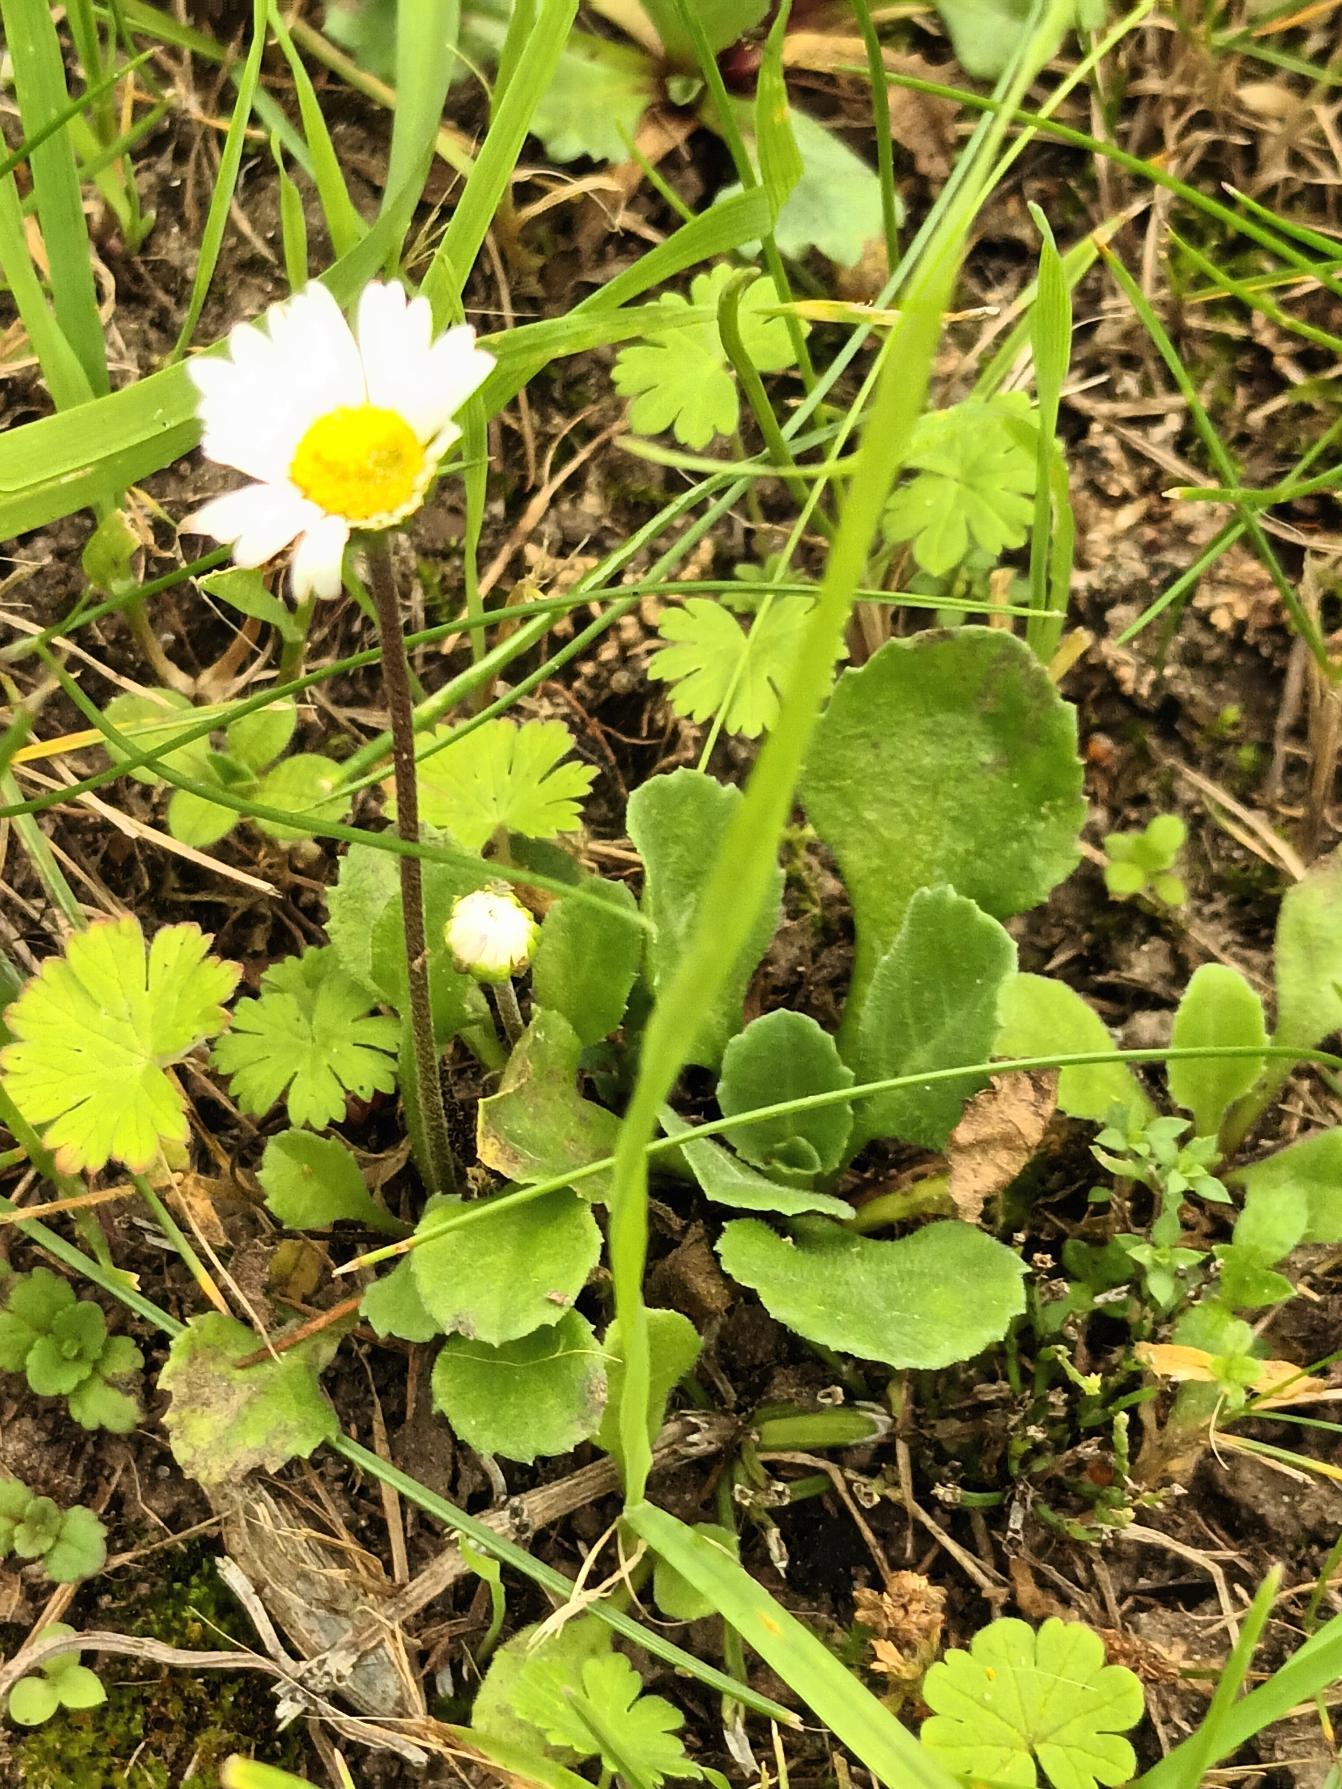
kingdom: Plantae
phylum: Tracheophyta
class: Magnoliopsida
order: Asterales
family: Asteraceae
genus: Bellis
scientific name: Bellis perennis
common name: Tusindfryd
